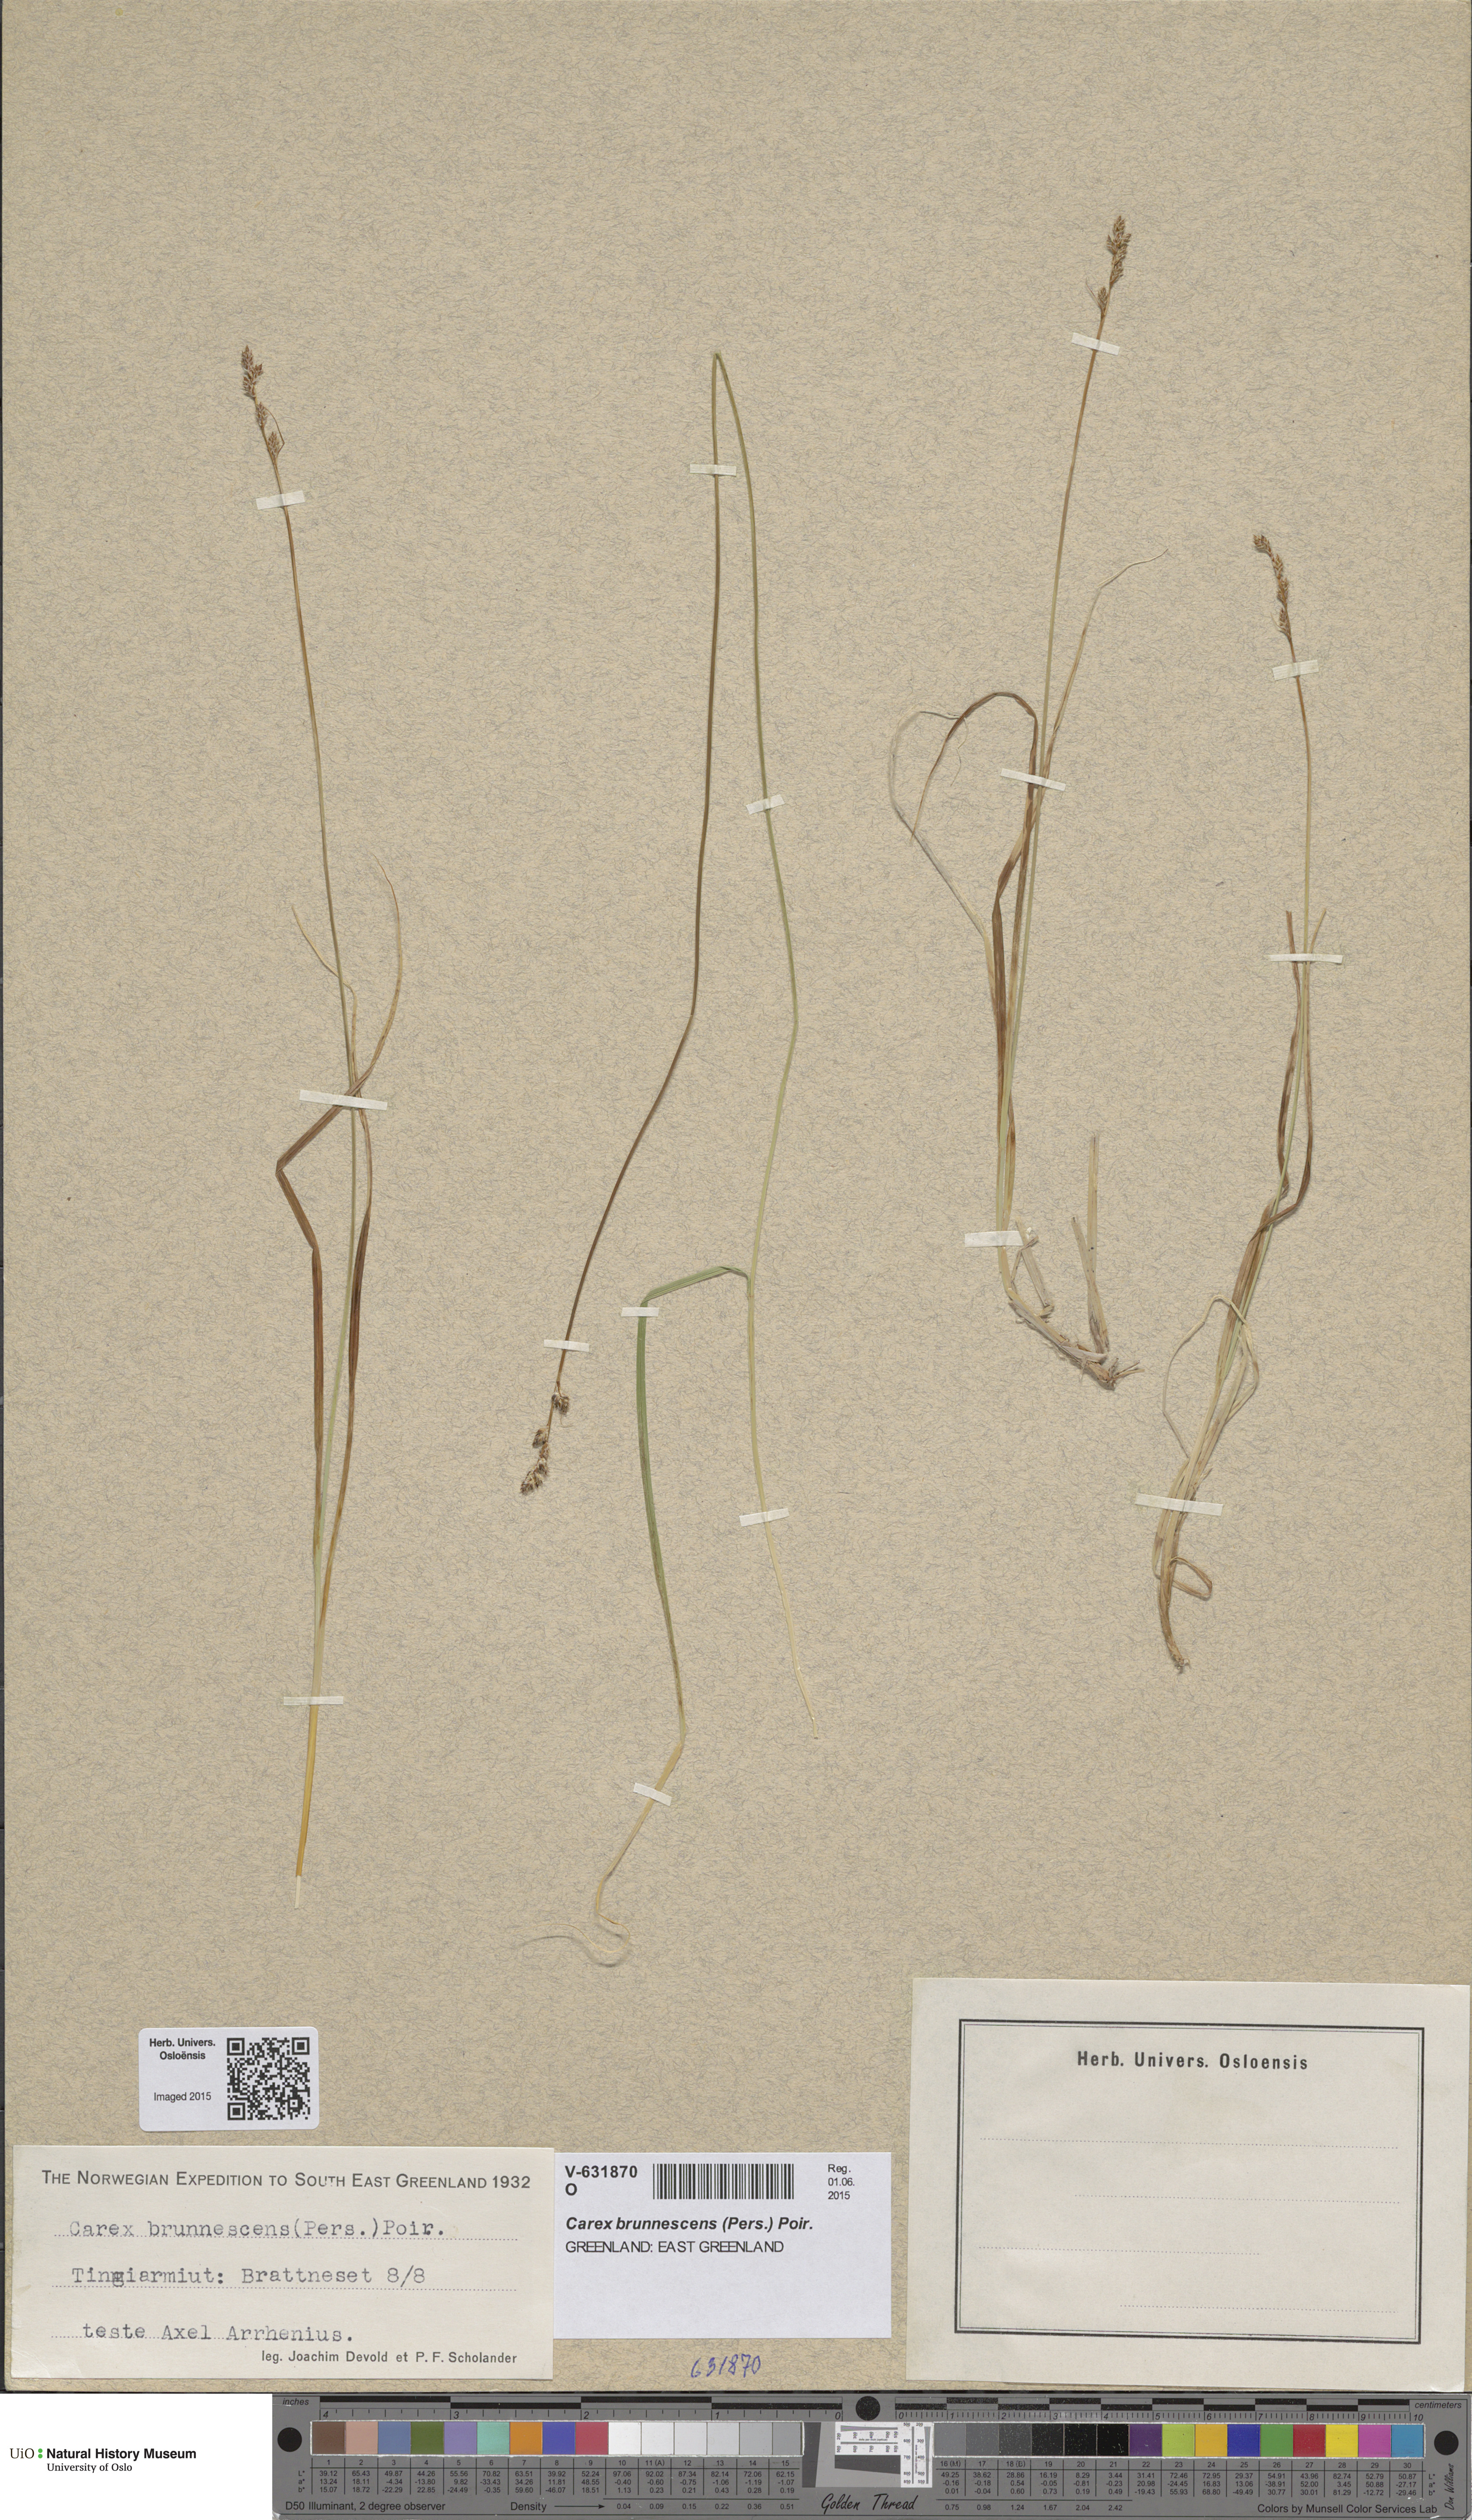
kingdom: Plantae
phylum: Tracheophyta
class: Liliopsida
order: Poales
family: Cyperaceae
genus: Carex
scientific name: Carex brunnescens
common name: Brown sedge
